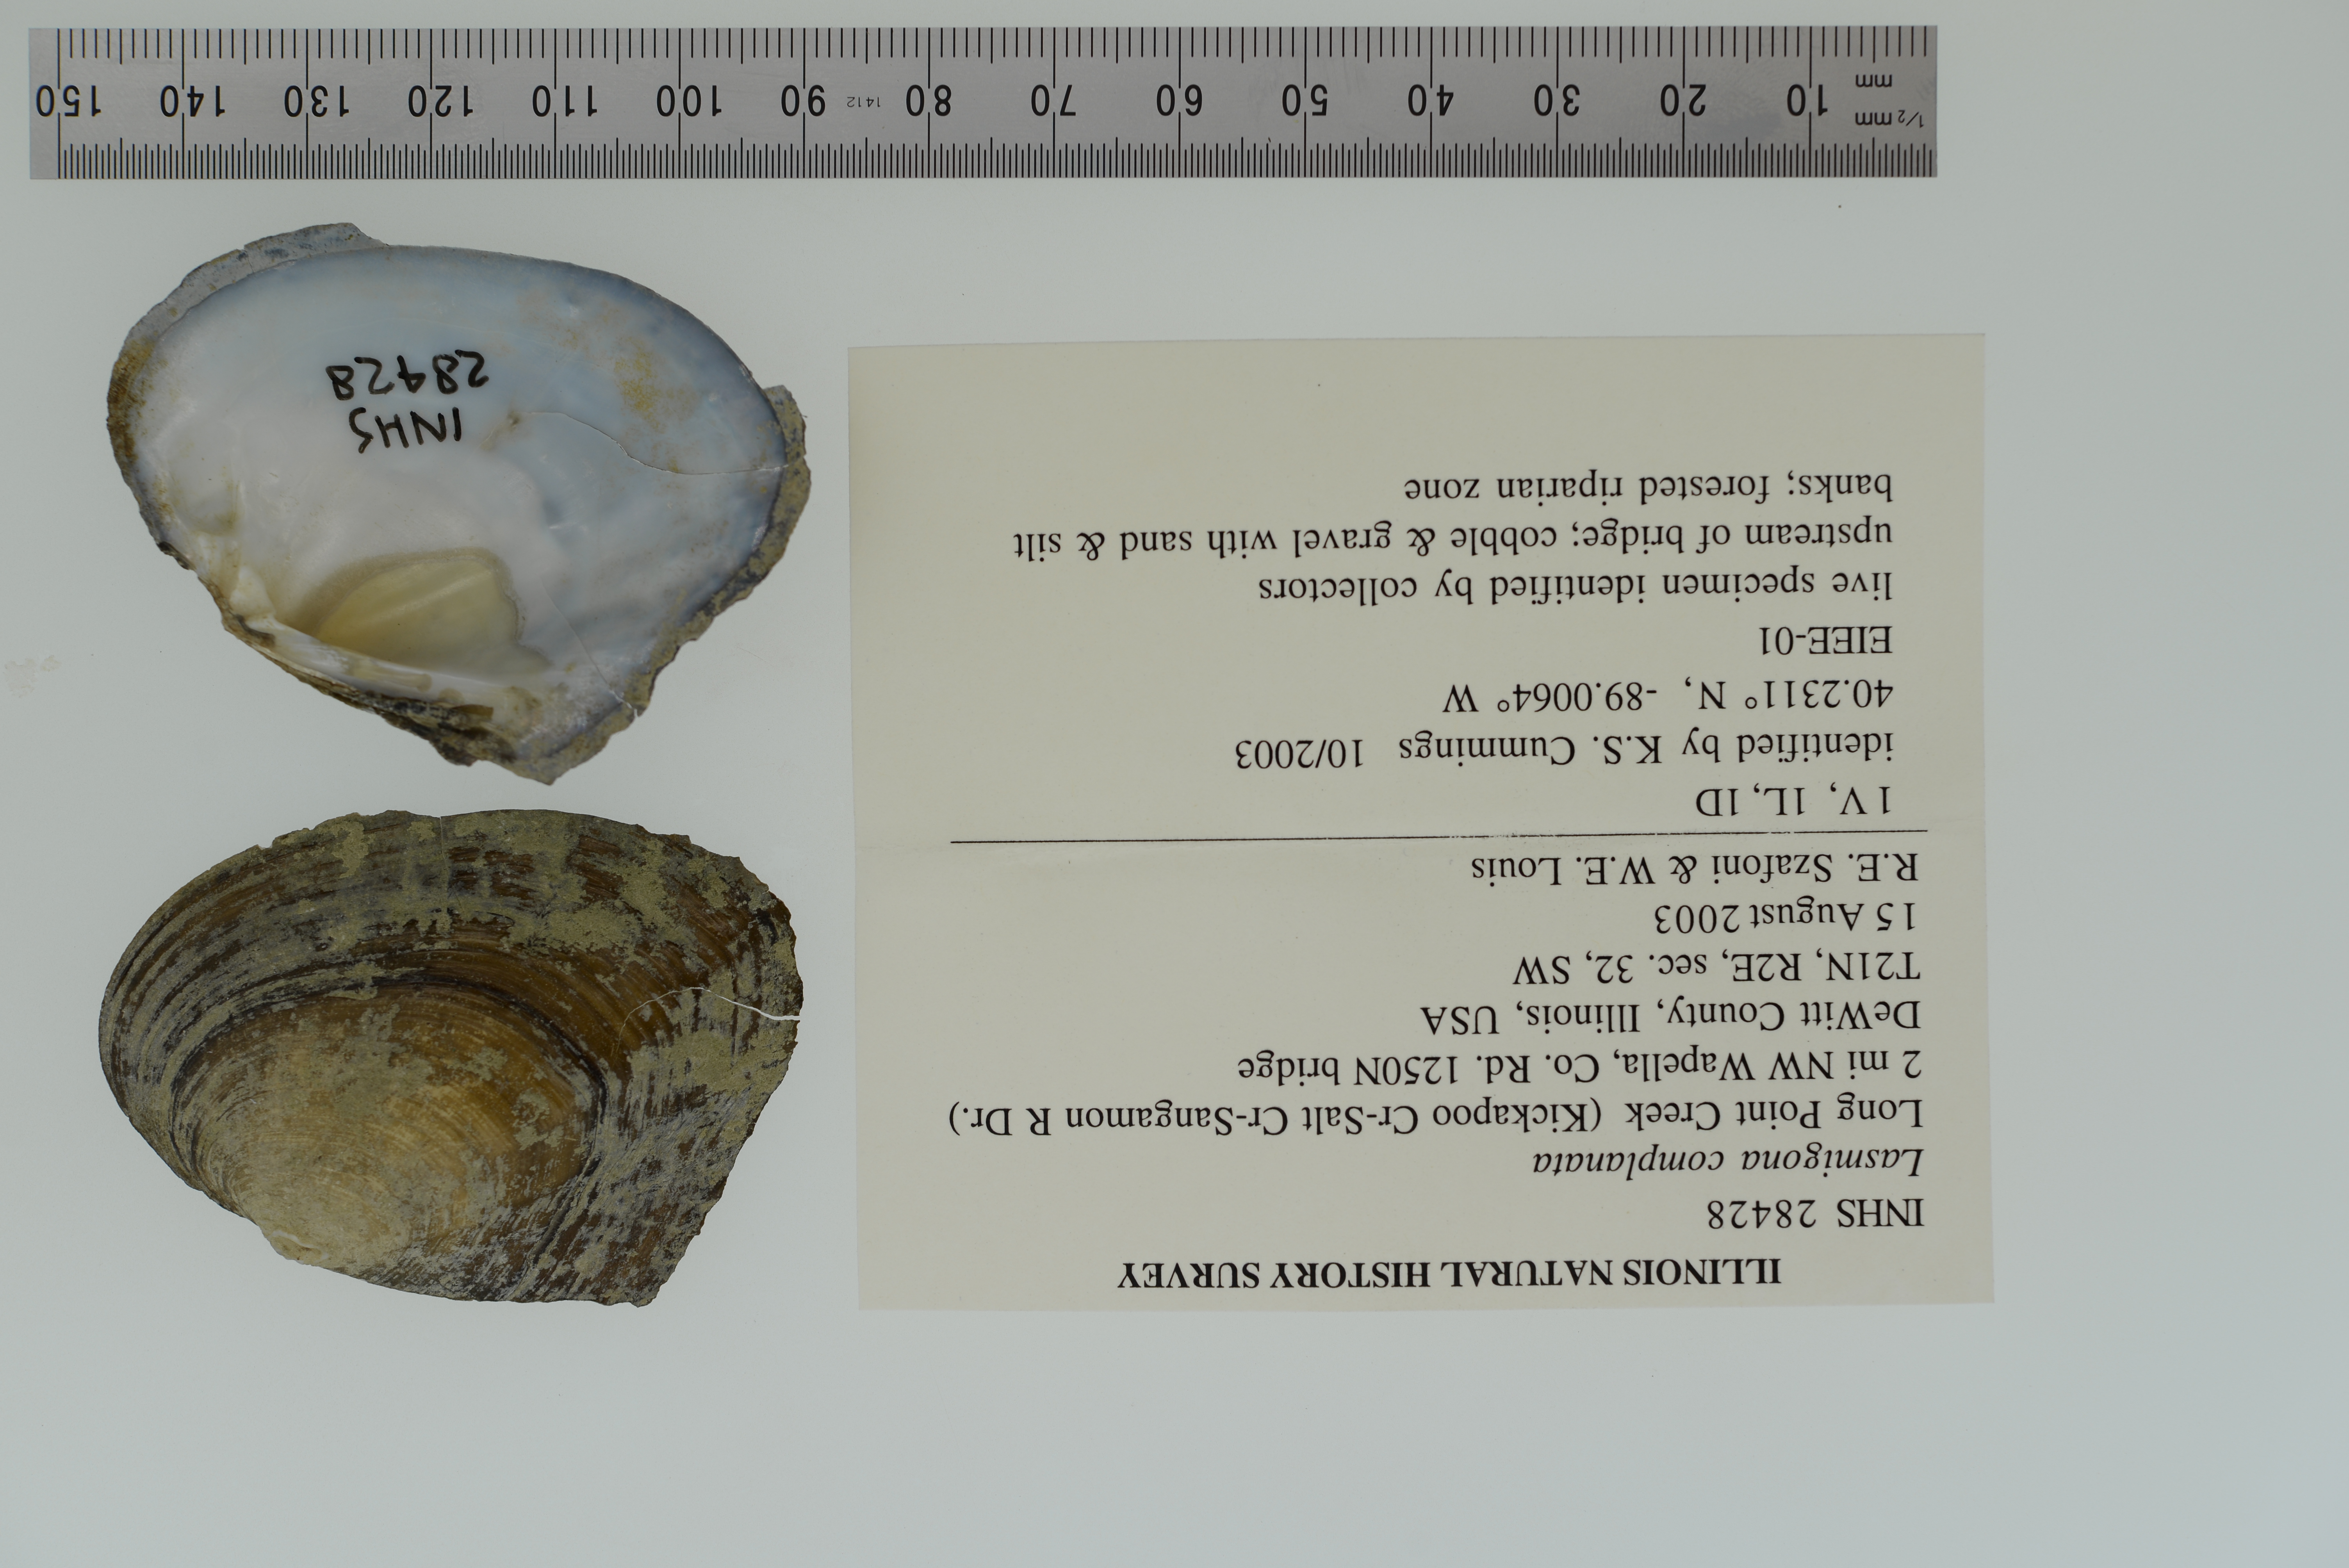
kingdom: Animalia
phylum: Mollusca
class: Bivalvia
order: Unionida
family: Unionidae
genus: Lasmigona
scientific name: Lasmigona complanata
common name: White heelsplitter
